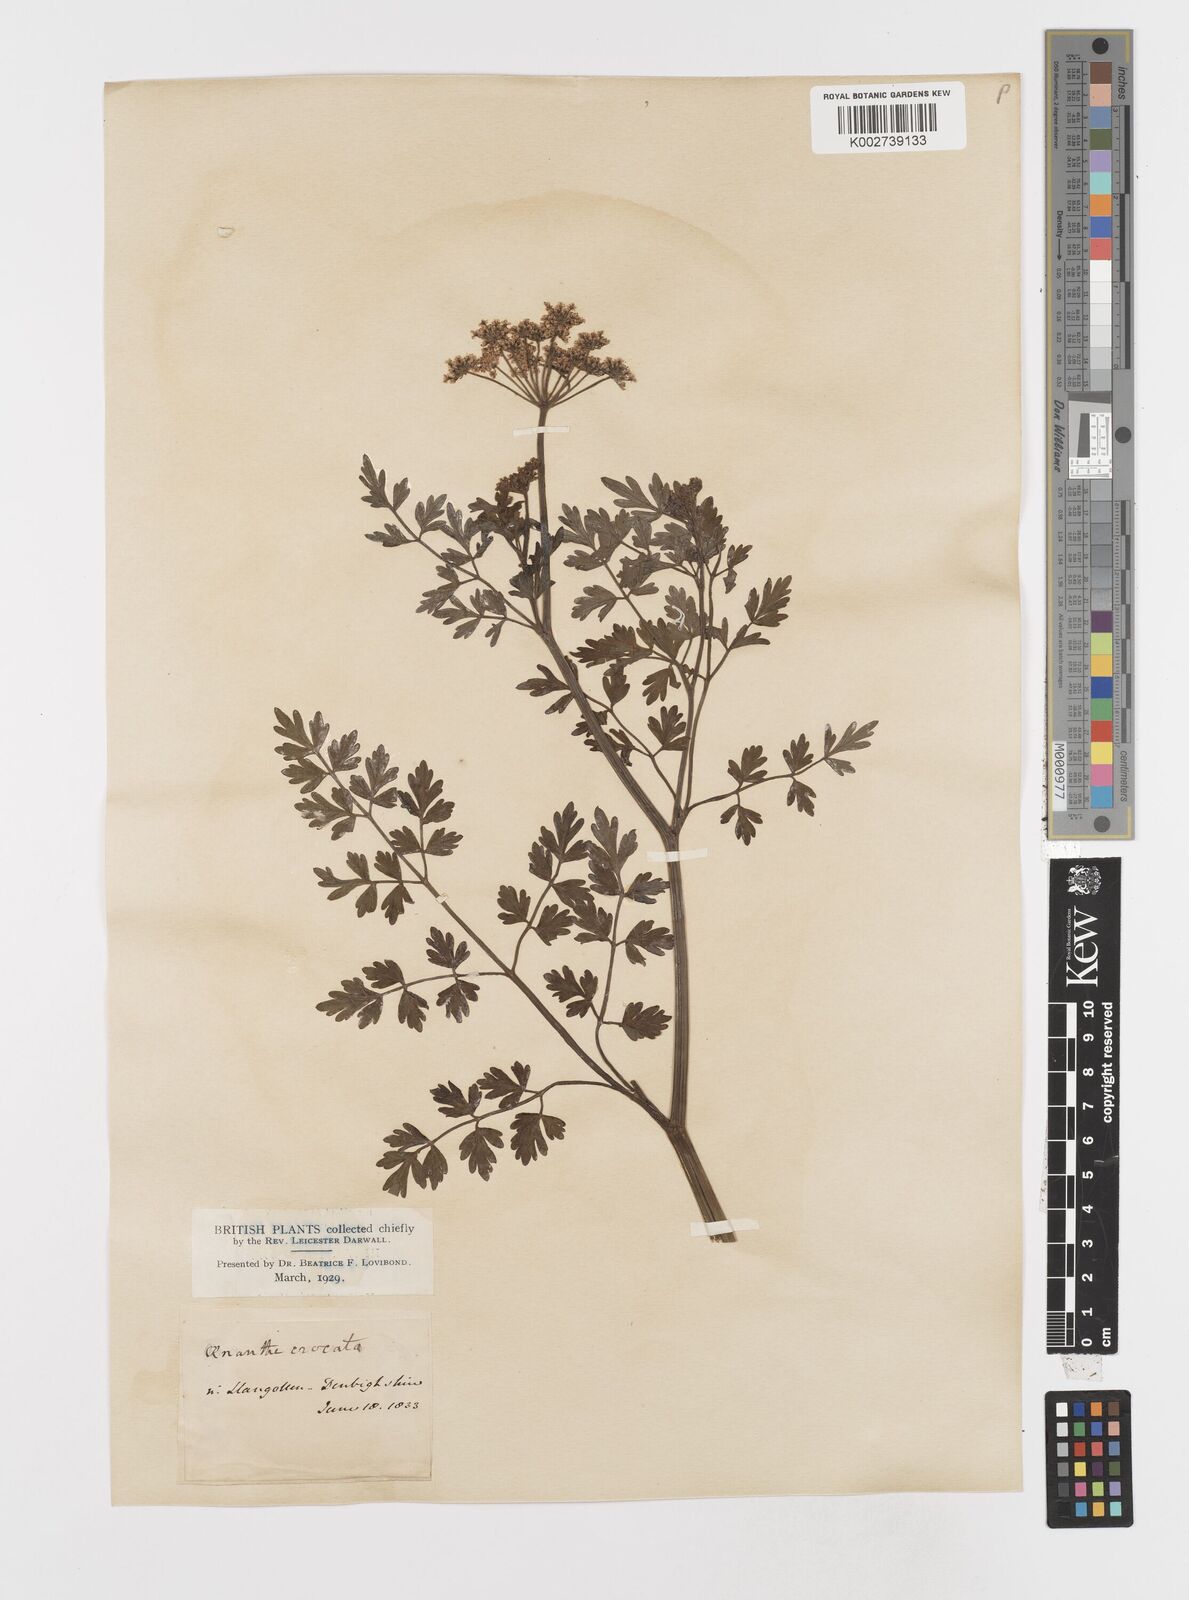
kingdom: Plantae
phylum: Tracheophyta
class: Magnoliopsida
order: Apiales
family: Apiaceae
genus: Oenanthe
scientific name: Oenanthe crocata
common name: Hemlock water-dropwort
